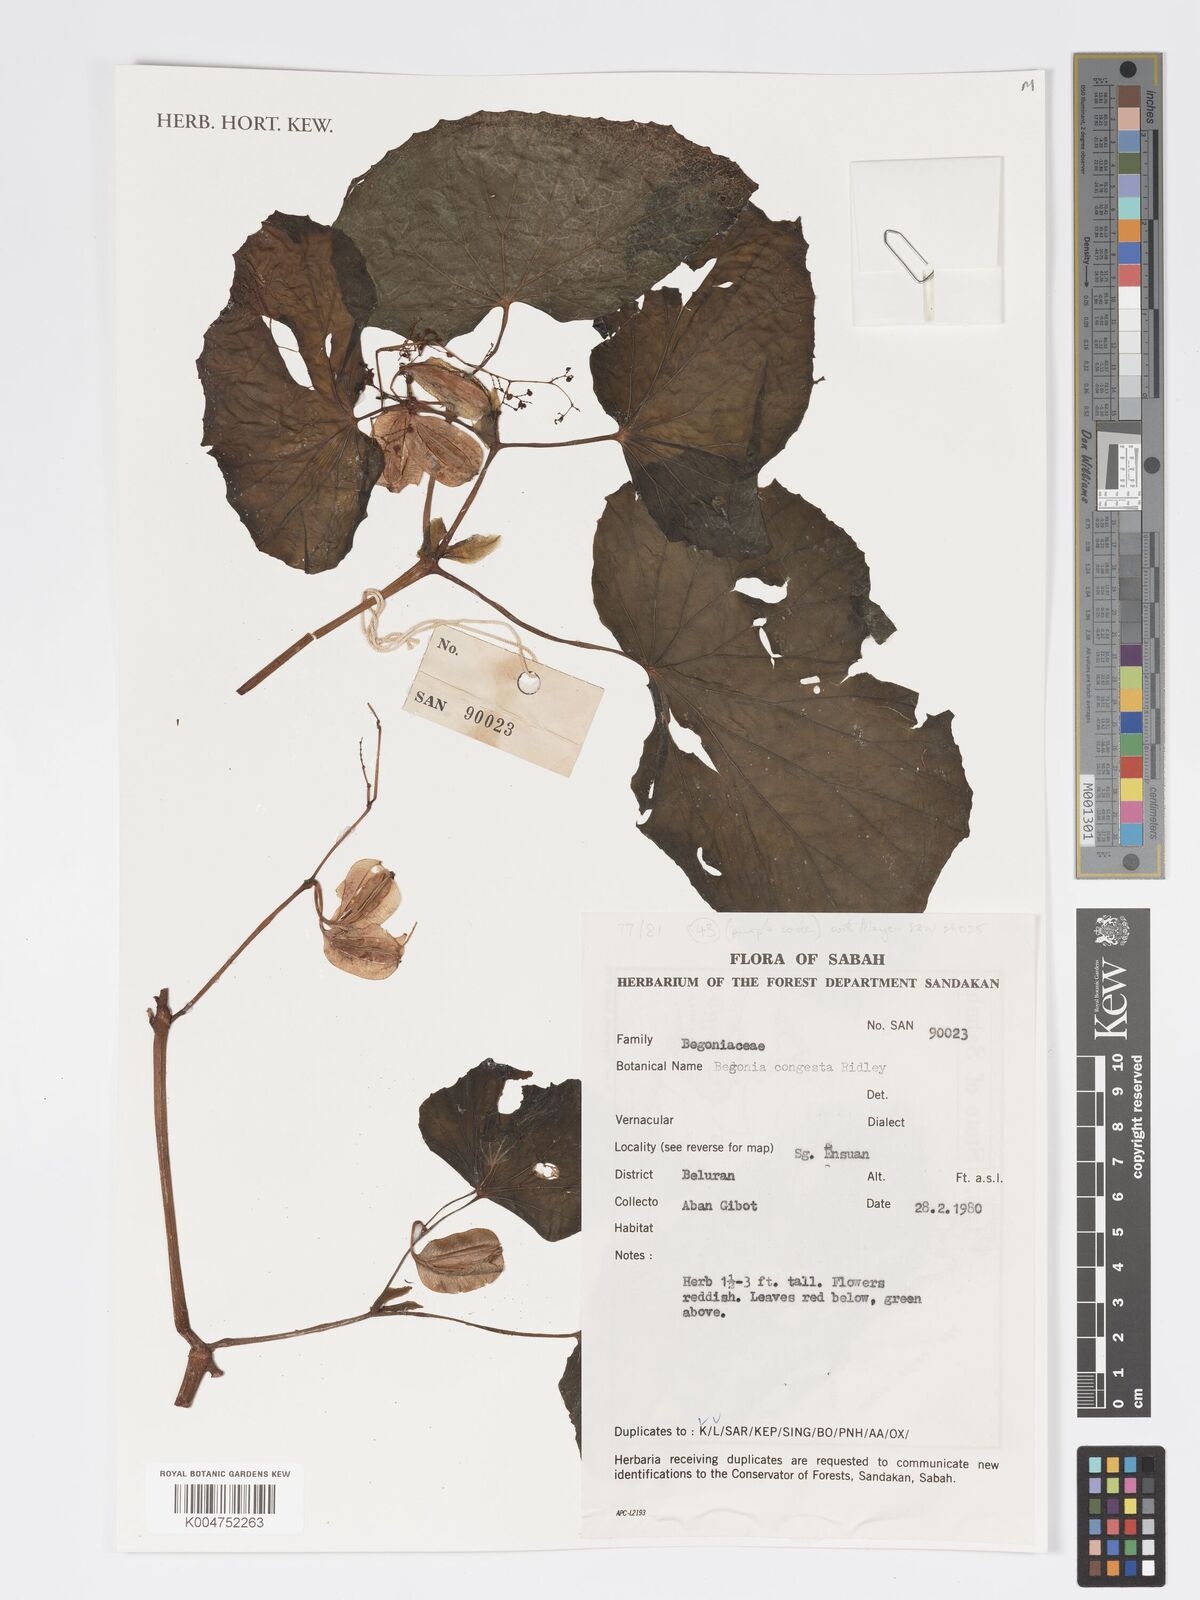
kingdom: Plantae
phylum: Tracheophyta
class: Magnoliopsida
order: Cucurbitales
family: Begoniaceae
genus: Begonia
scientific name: Begonia congesta
